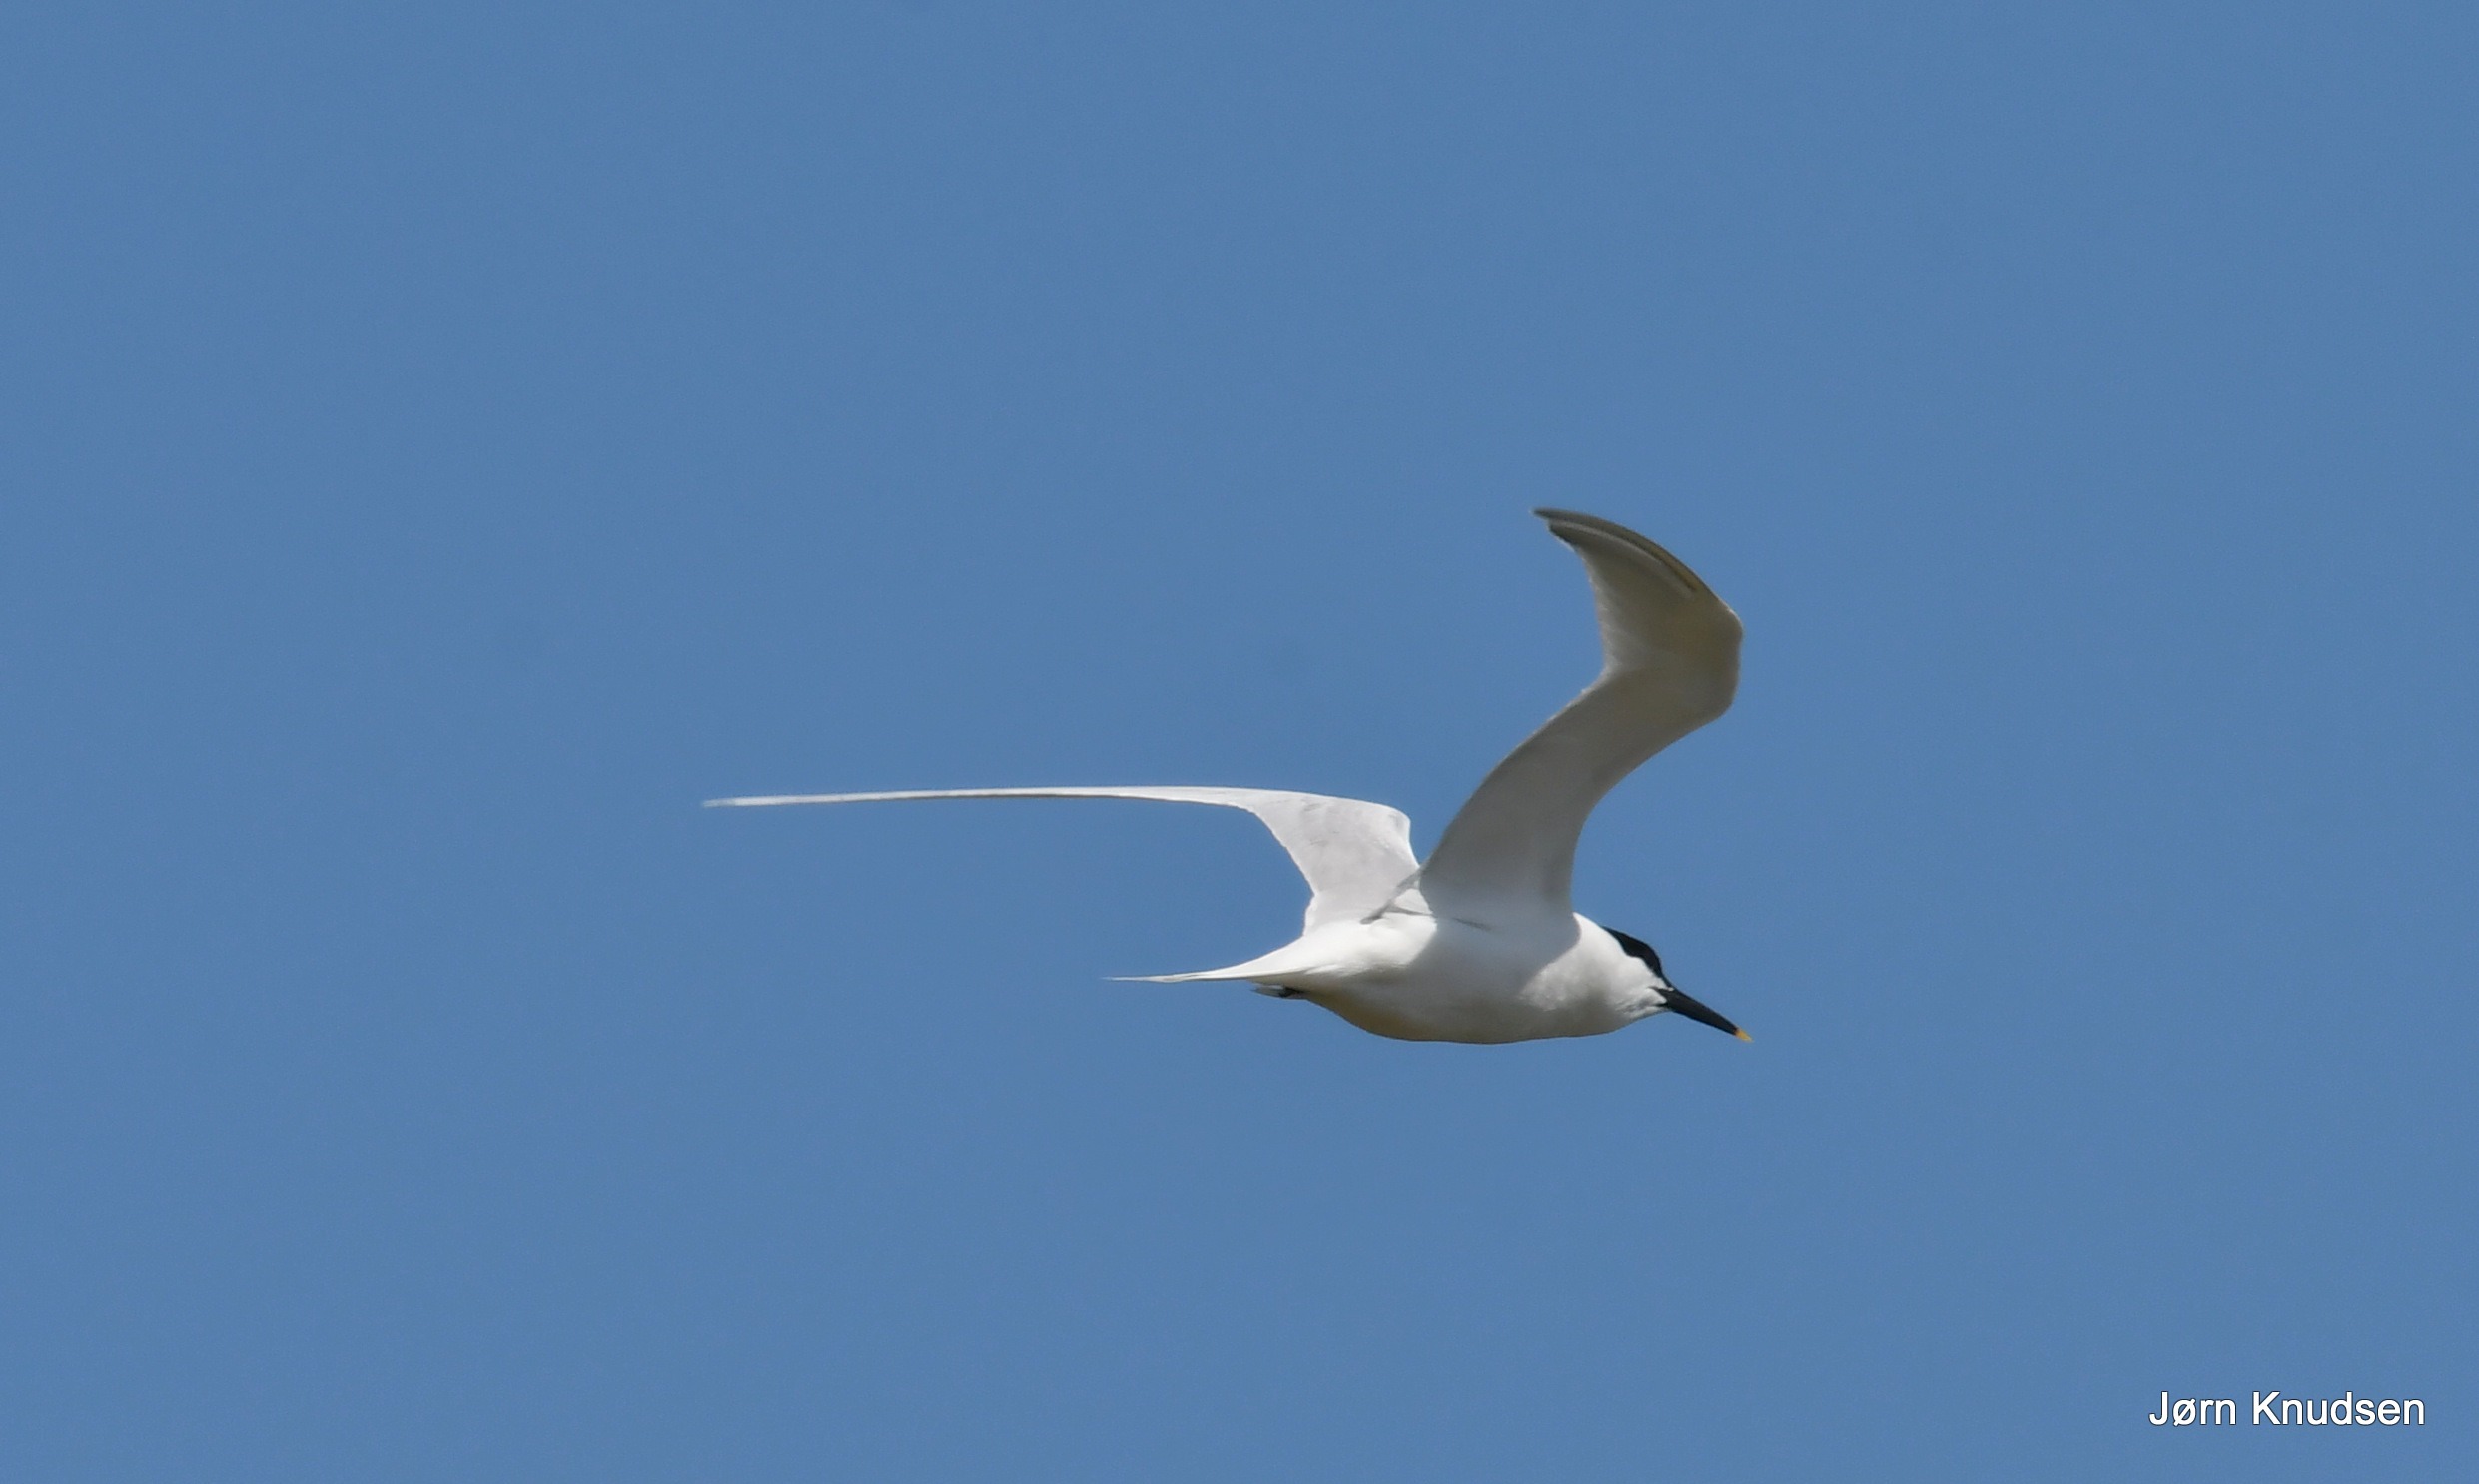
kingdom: Animalia
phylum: Chordata
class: Aves
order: Charadriiformes
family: Laridae
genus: Thalasseus
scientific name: Thalasseus sandvicensis
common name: Splitterne
